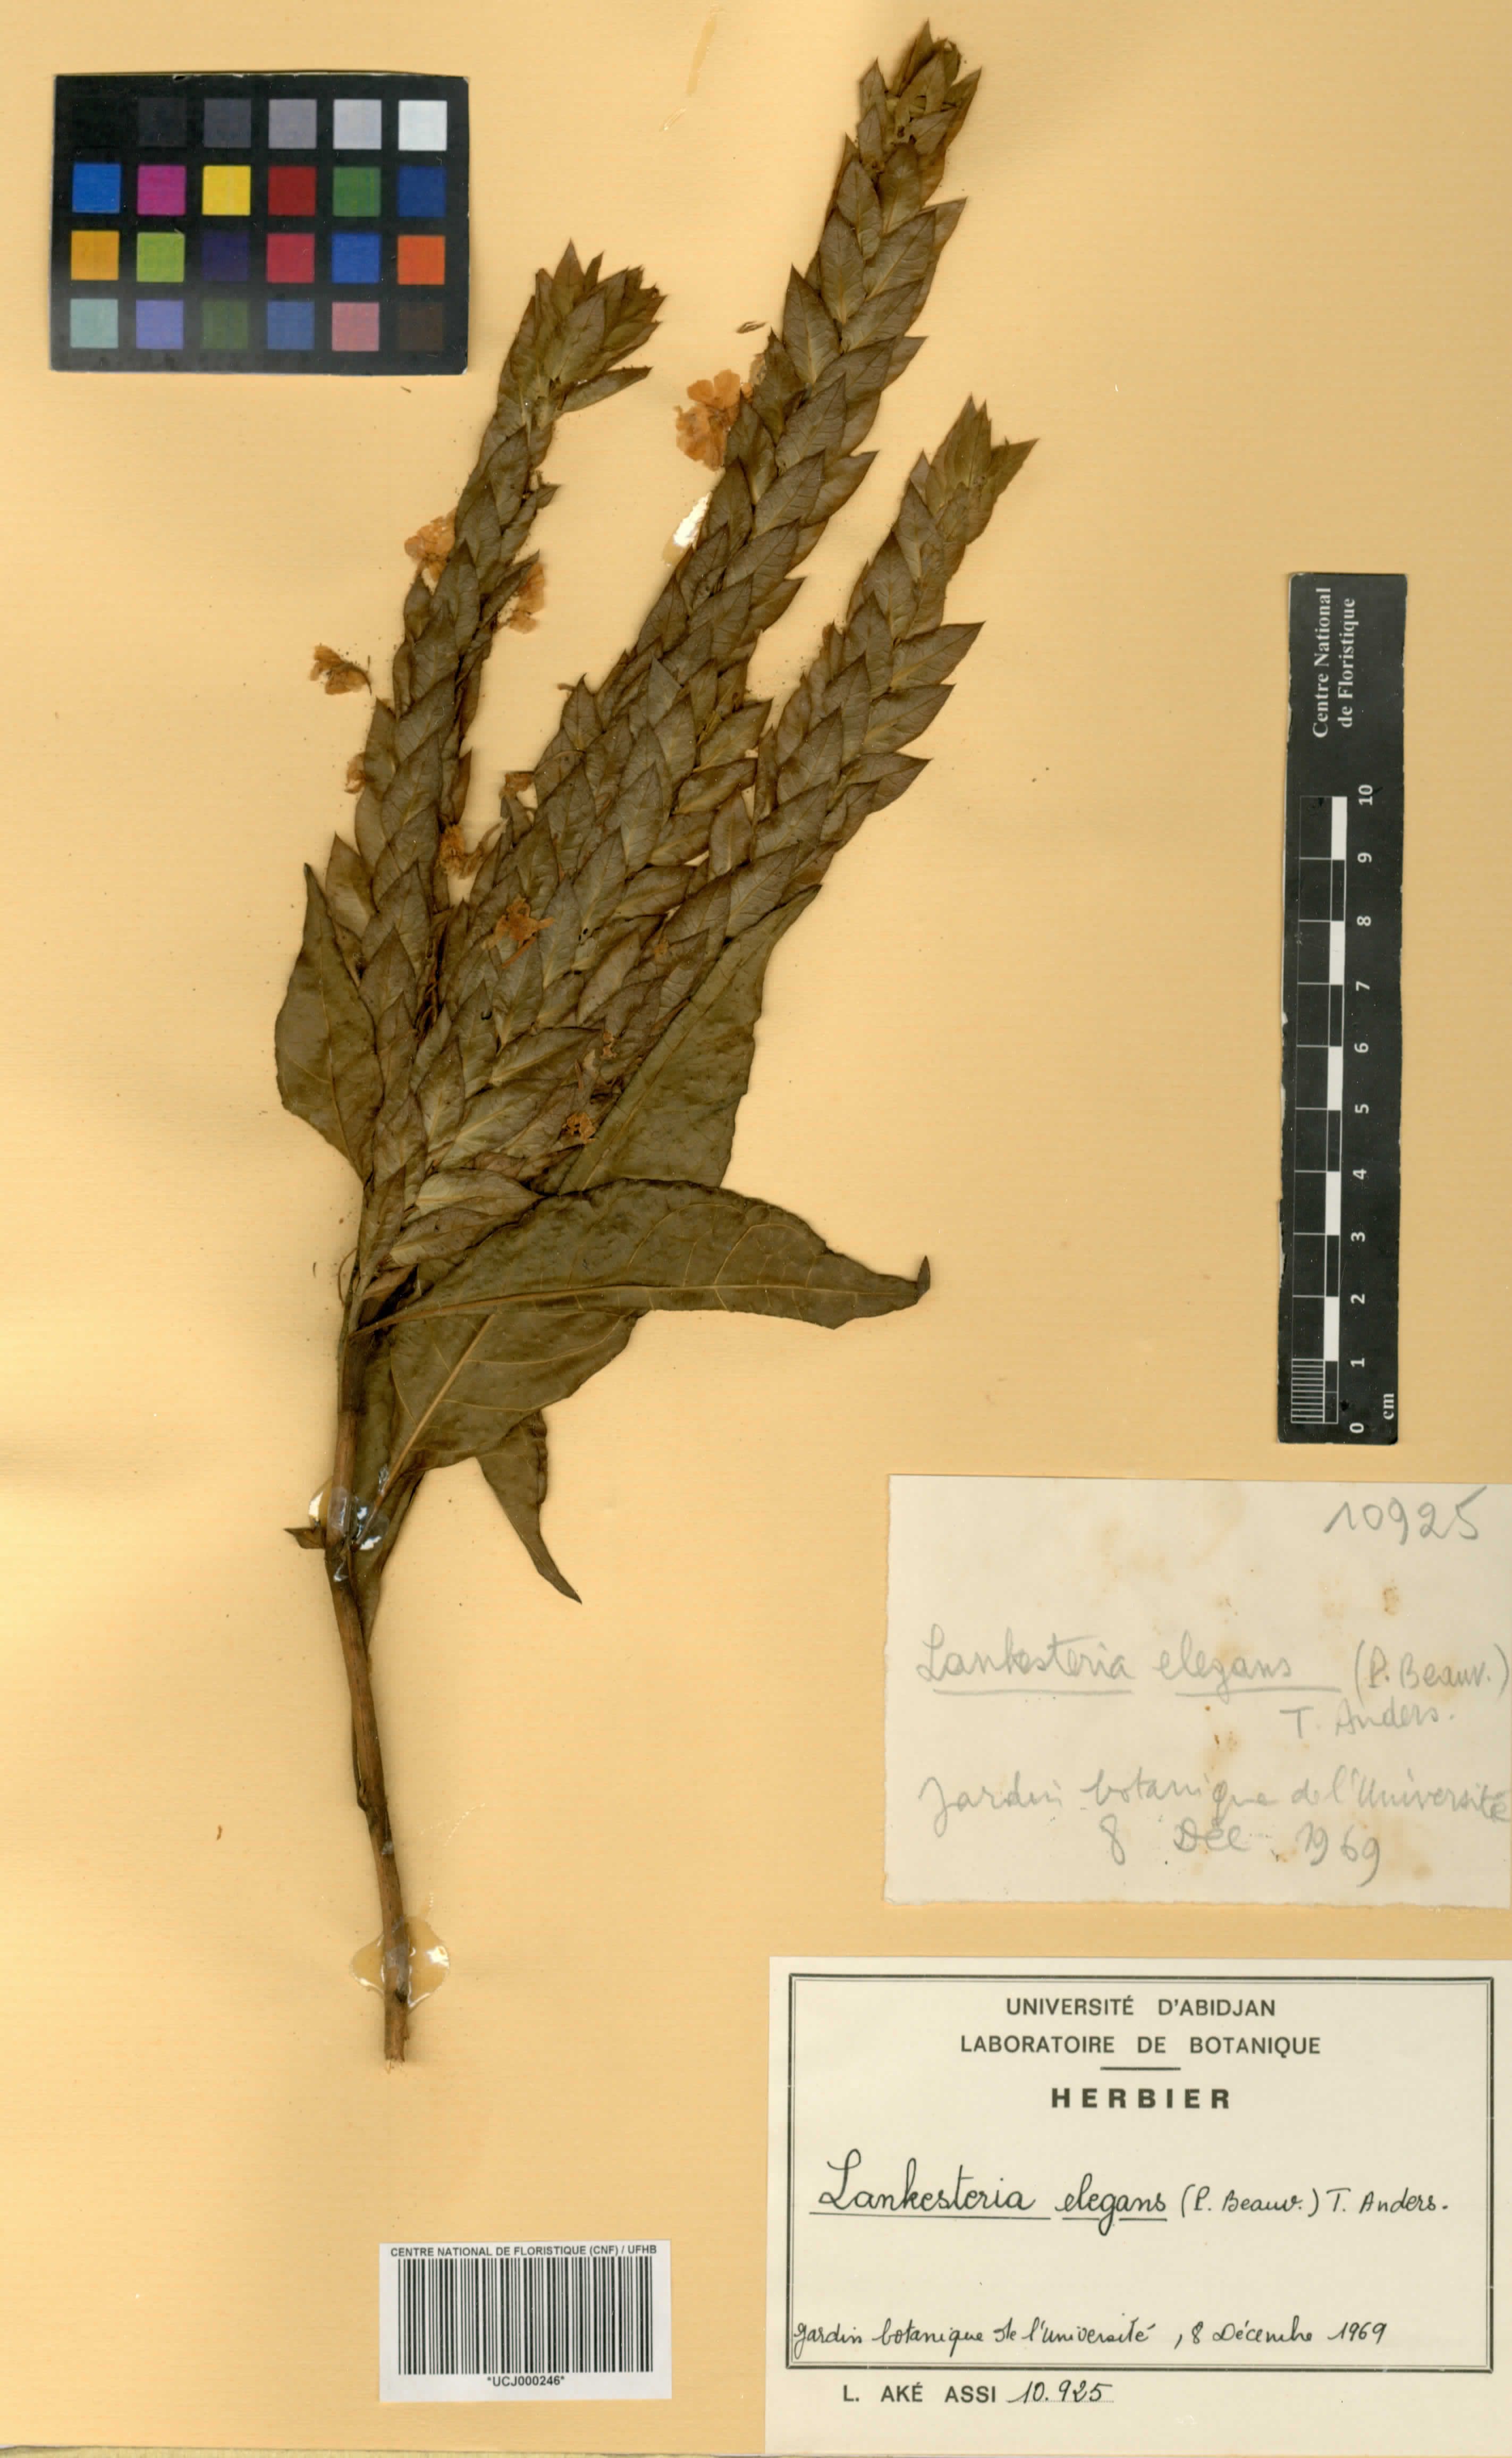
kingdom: Plantae
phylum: Tracheophyta
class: Magnoliopsida
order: Lamiales
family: Acanthaceae
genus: Lankesteria
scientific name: Lankesteria elegans
